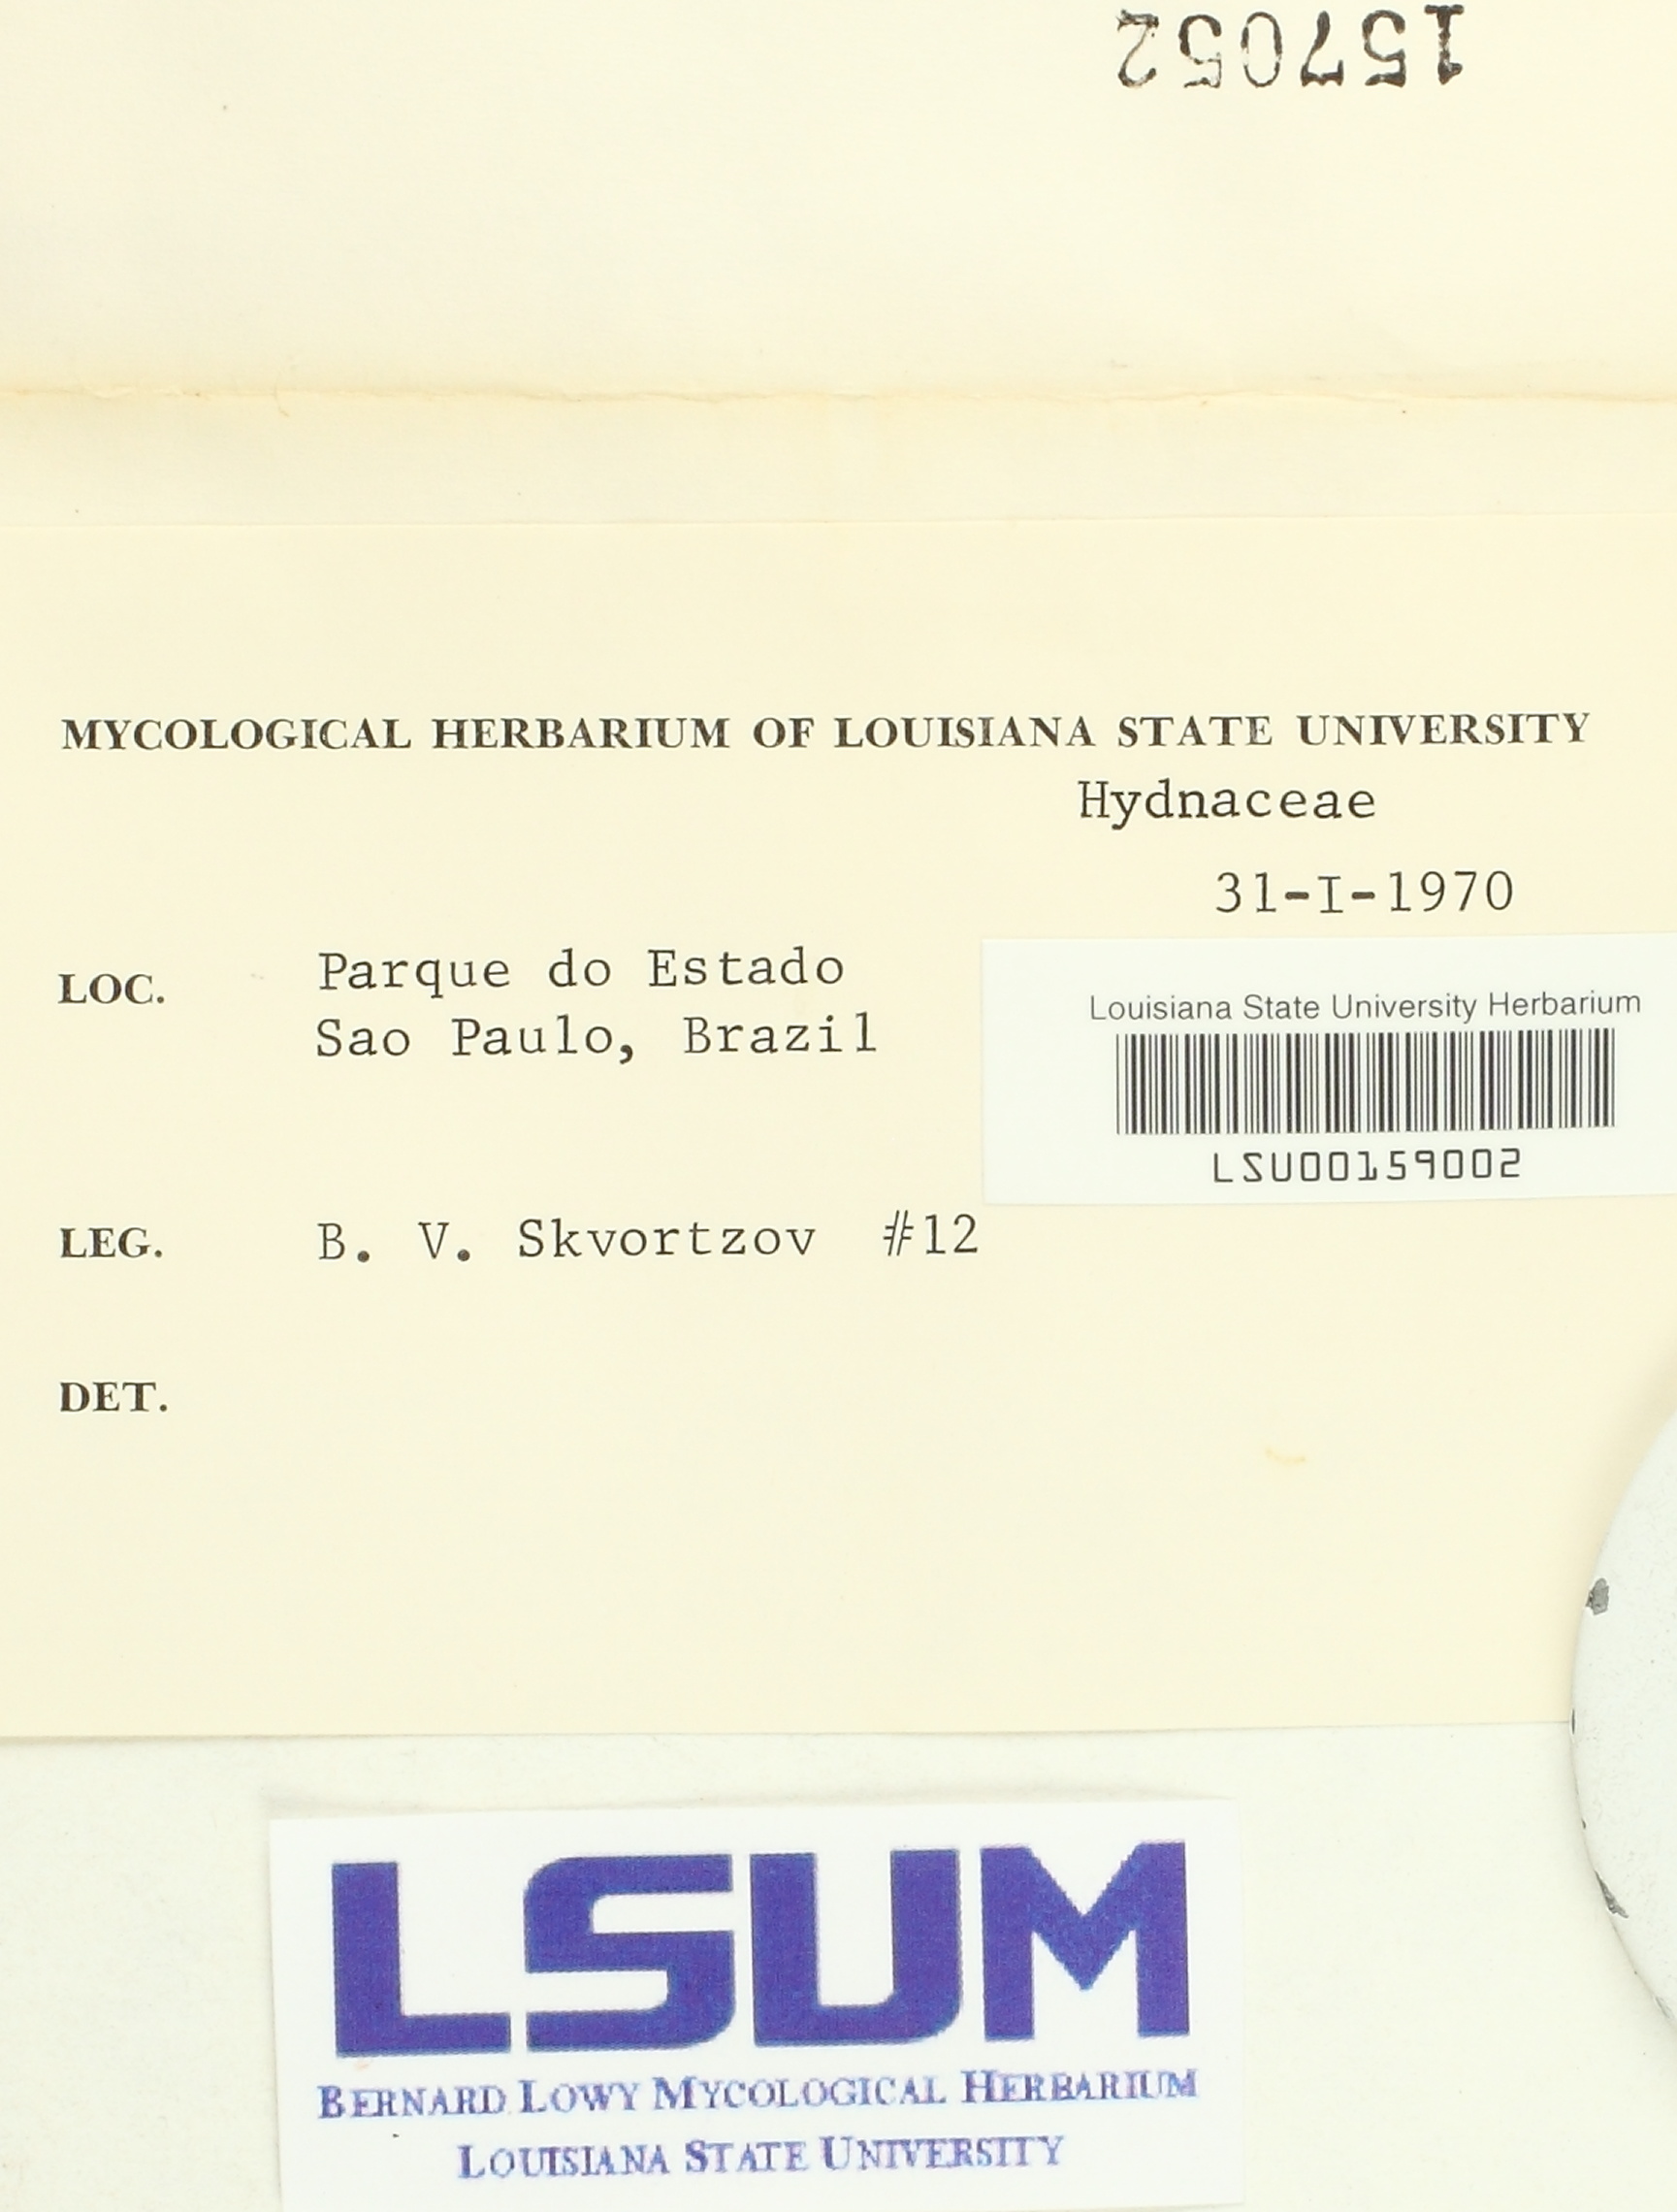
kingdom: Fungi
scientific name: Fungi
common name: Fungi
